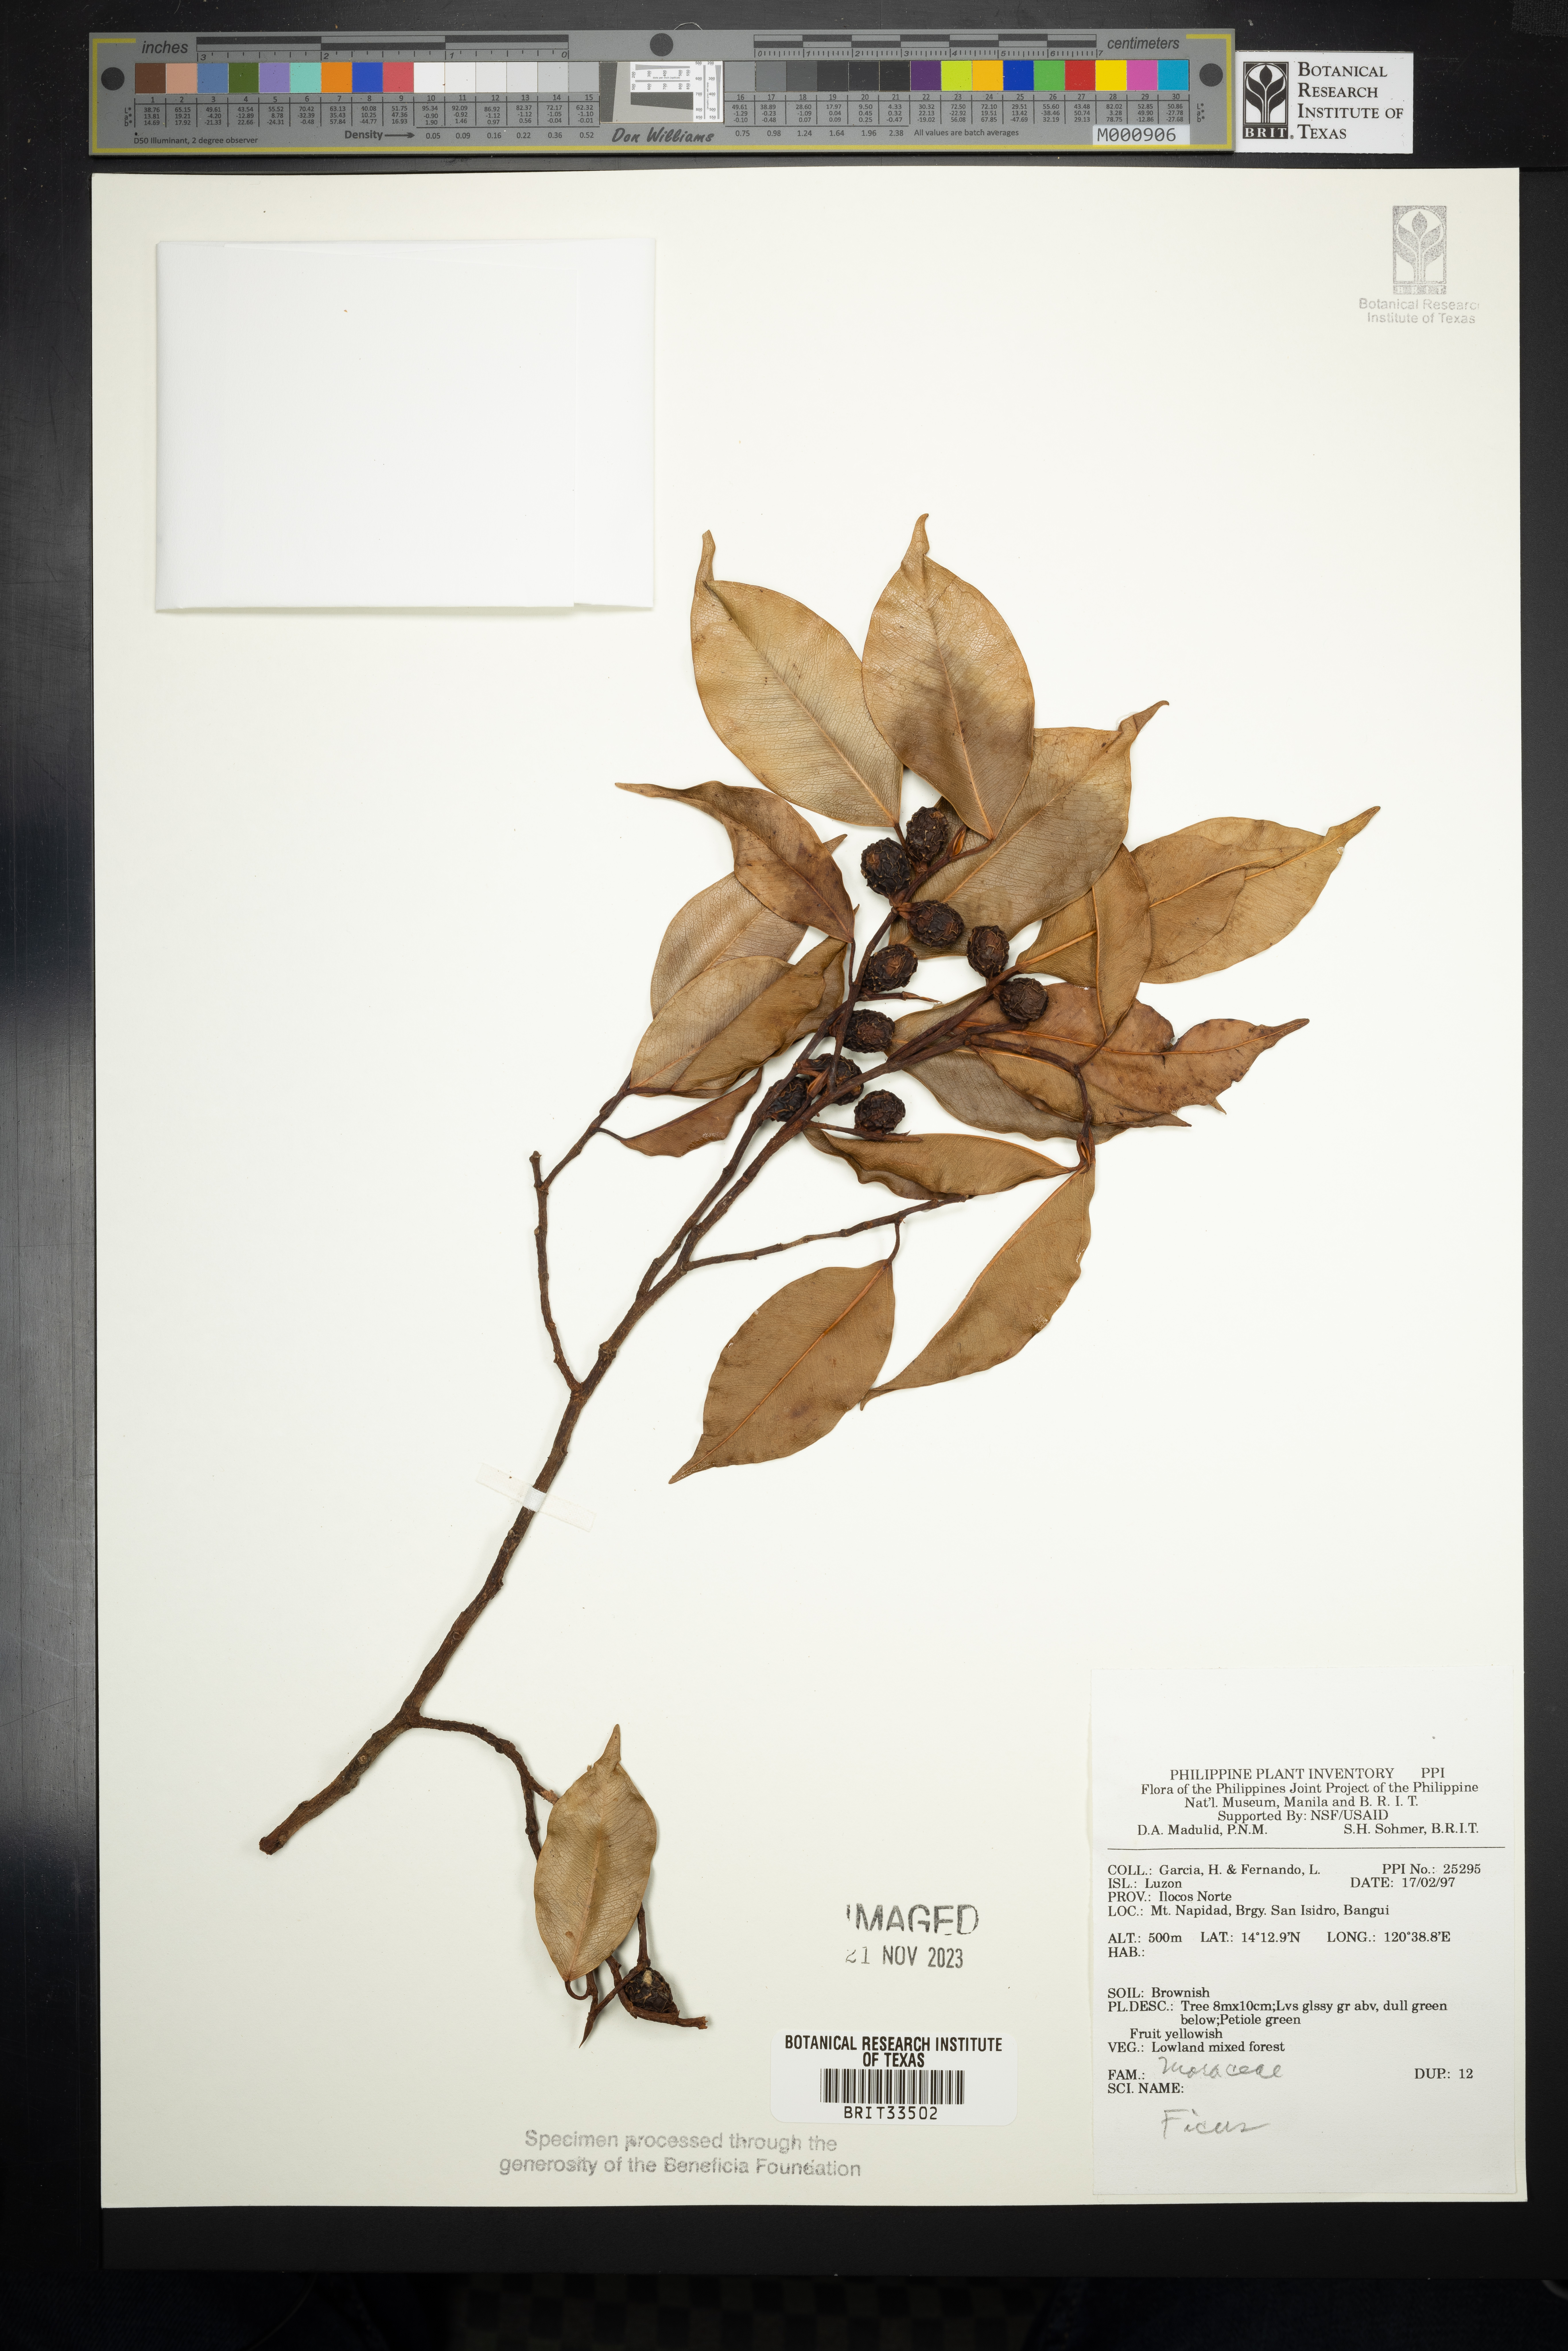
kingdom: Plantae
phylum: Tracheophyta
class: Magnoliopsida
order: Rosales
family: Moraceae
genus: Ficus
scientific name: Ficus
